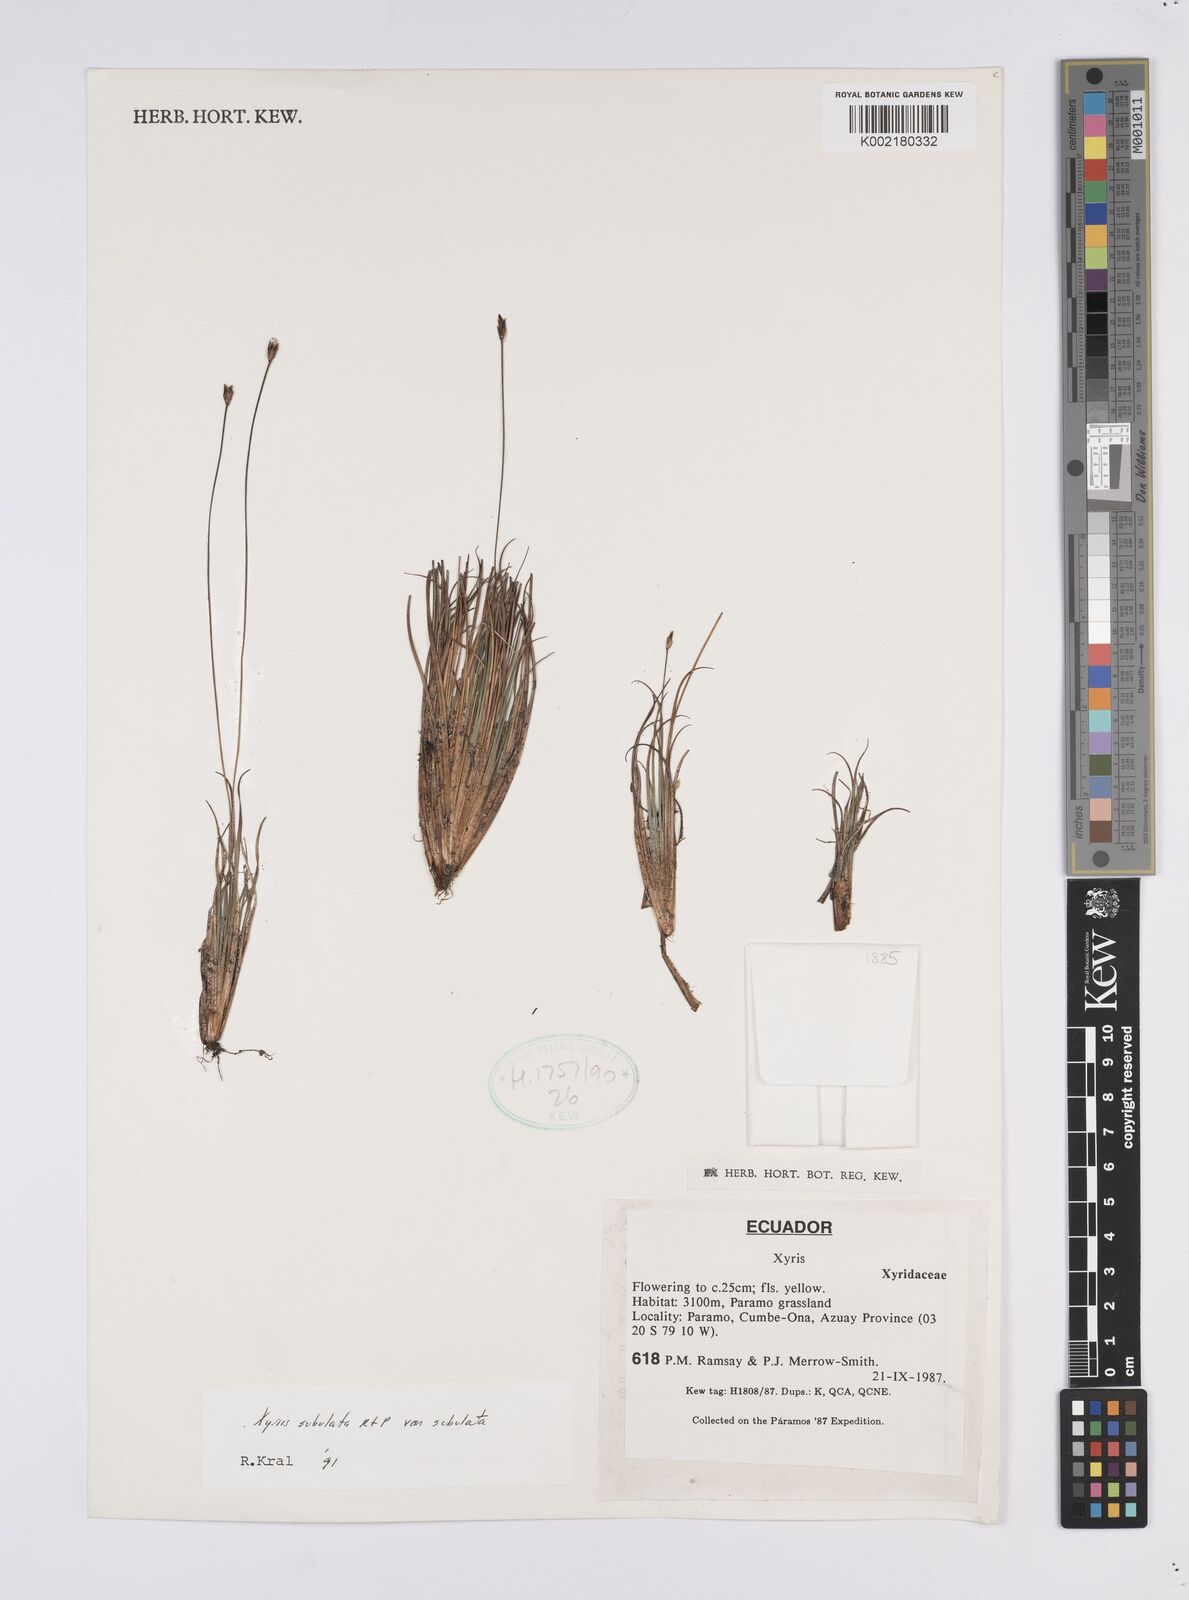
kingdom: Plantae
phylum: Tracheophyta
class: Liliopsida
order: Poales
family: Xyridaceae
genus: Xyris
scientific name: Xyris subulata
